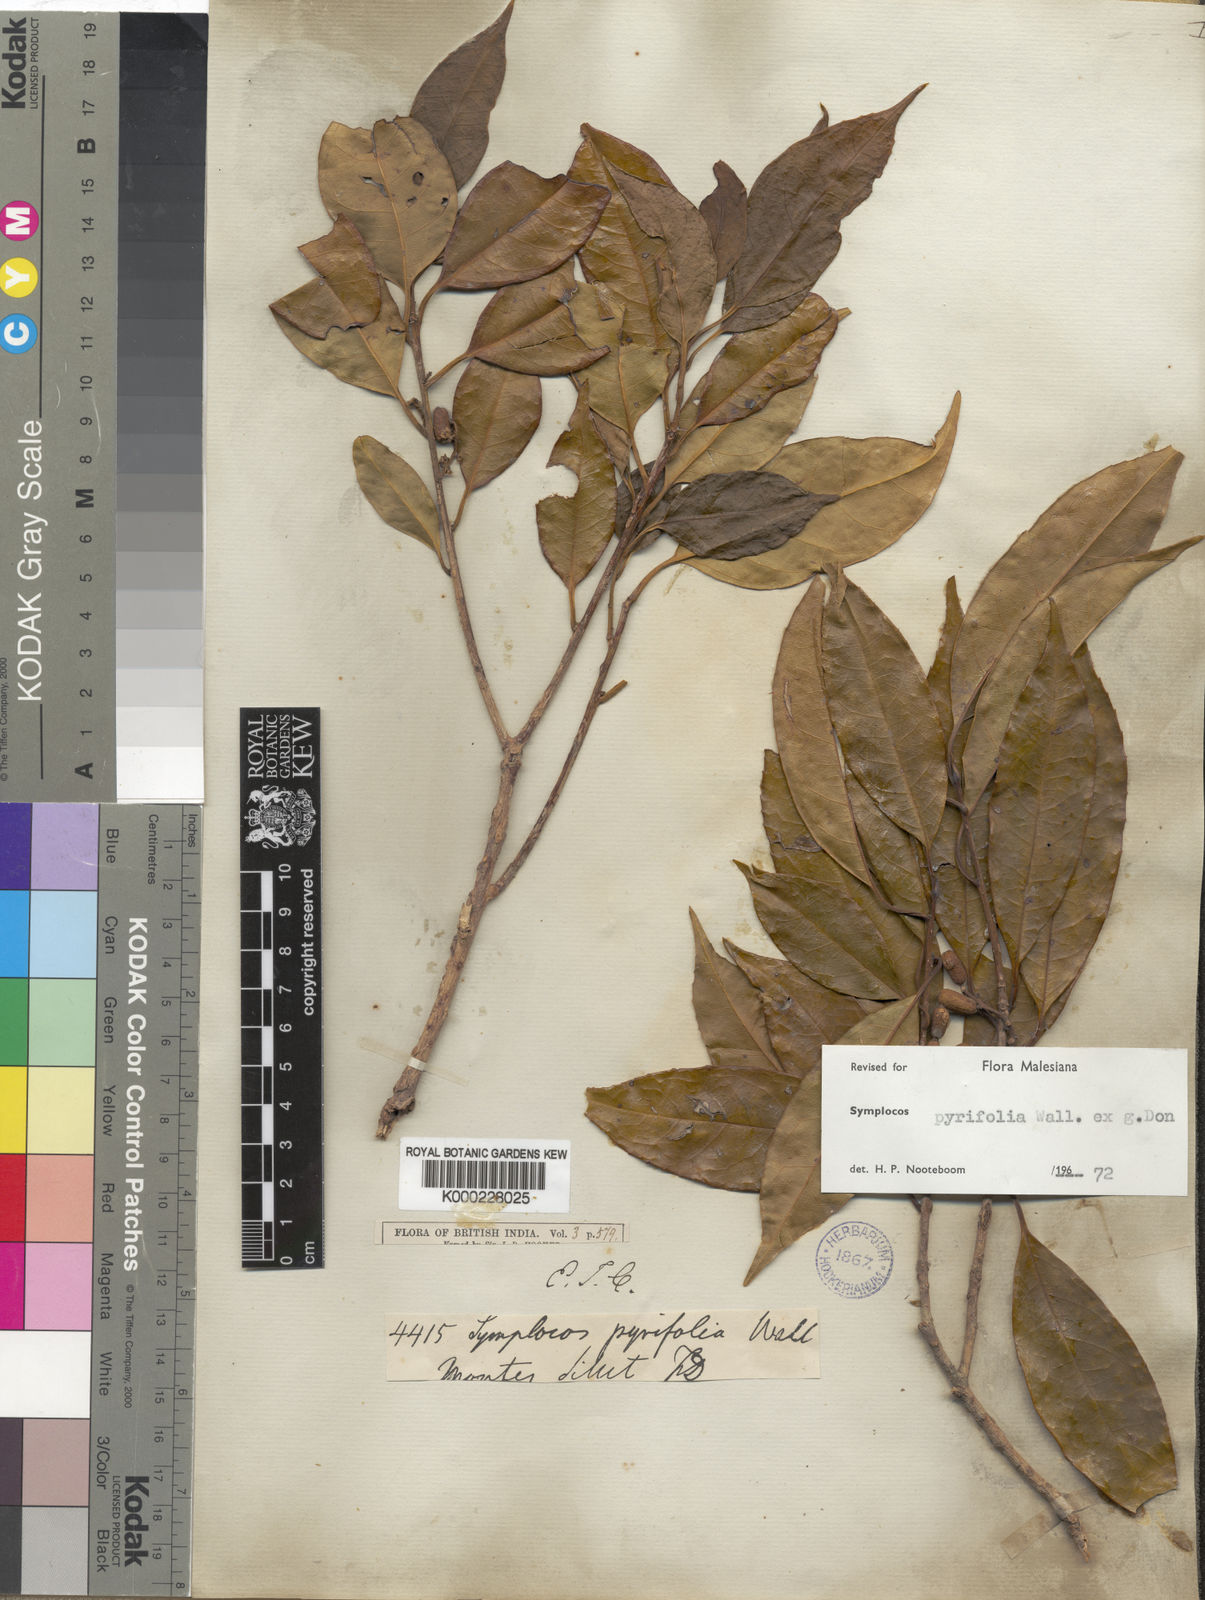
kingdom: Plantae
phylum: Tracheophyta
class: Magnoliopsida
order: Ericales
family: Symplocaceae
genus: Symplocos
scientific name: Symplocos pyrifolia
